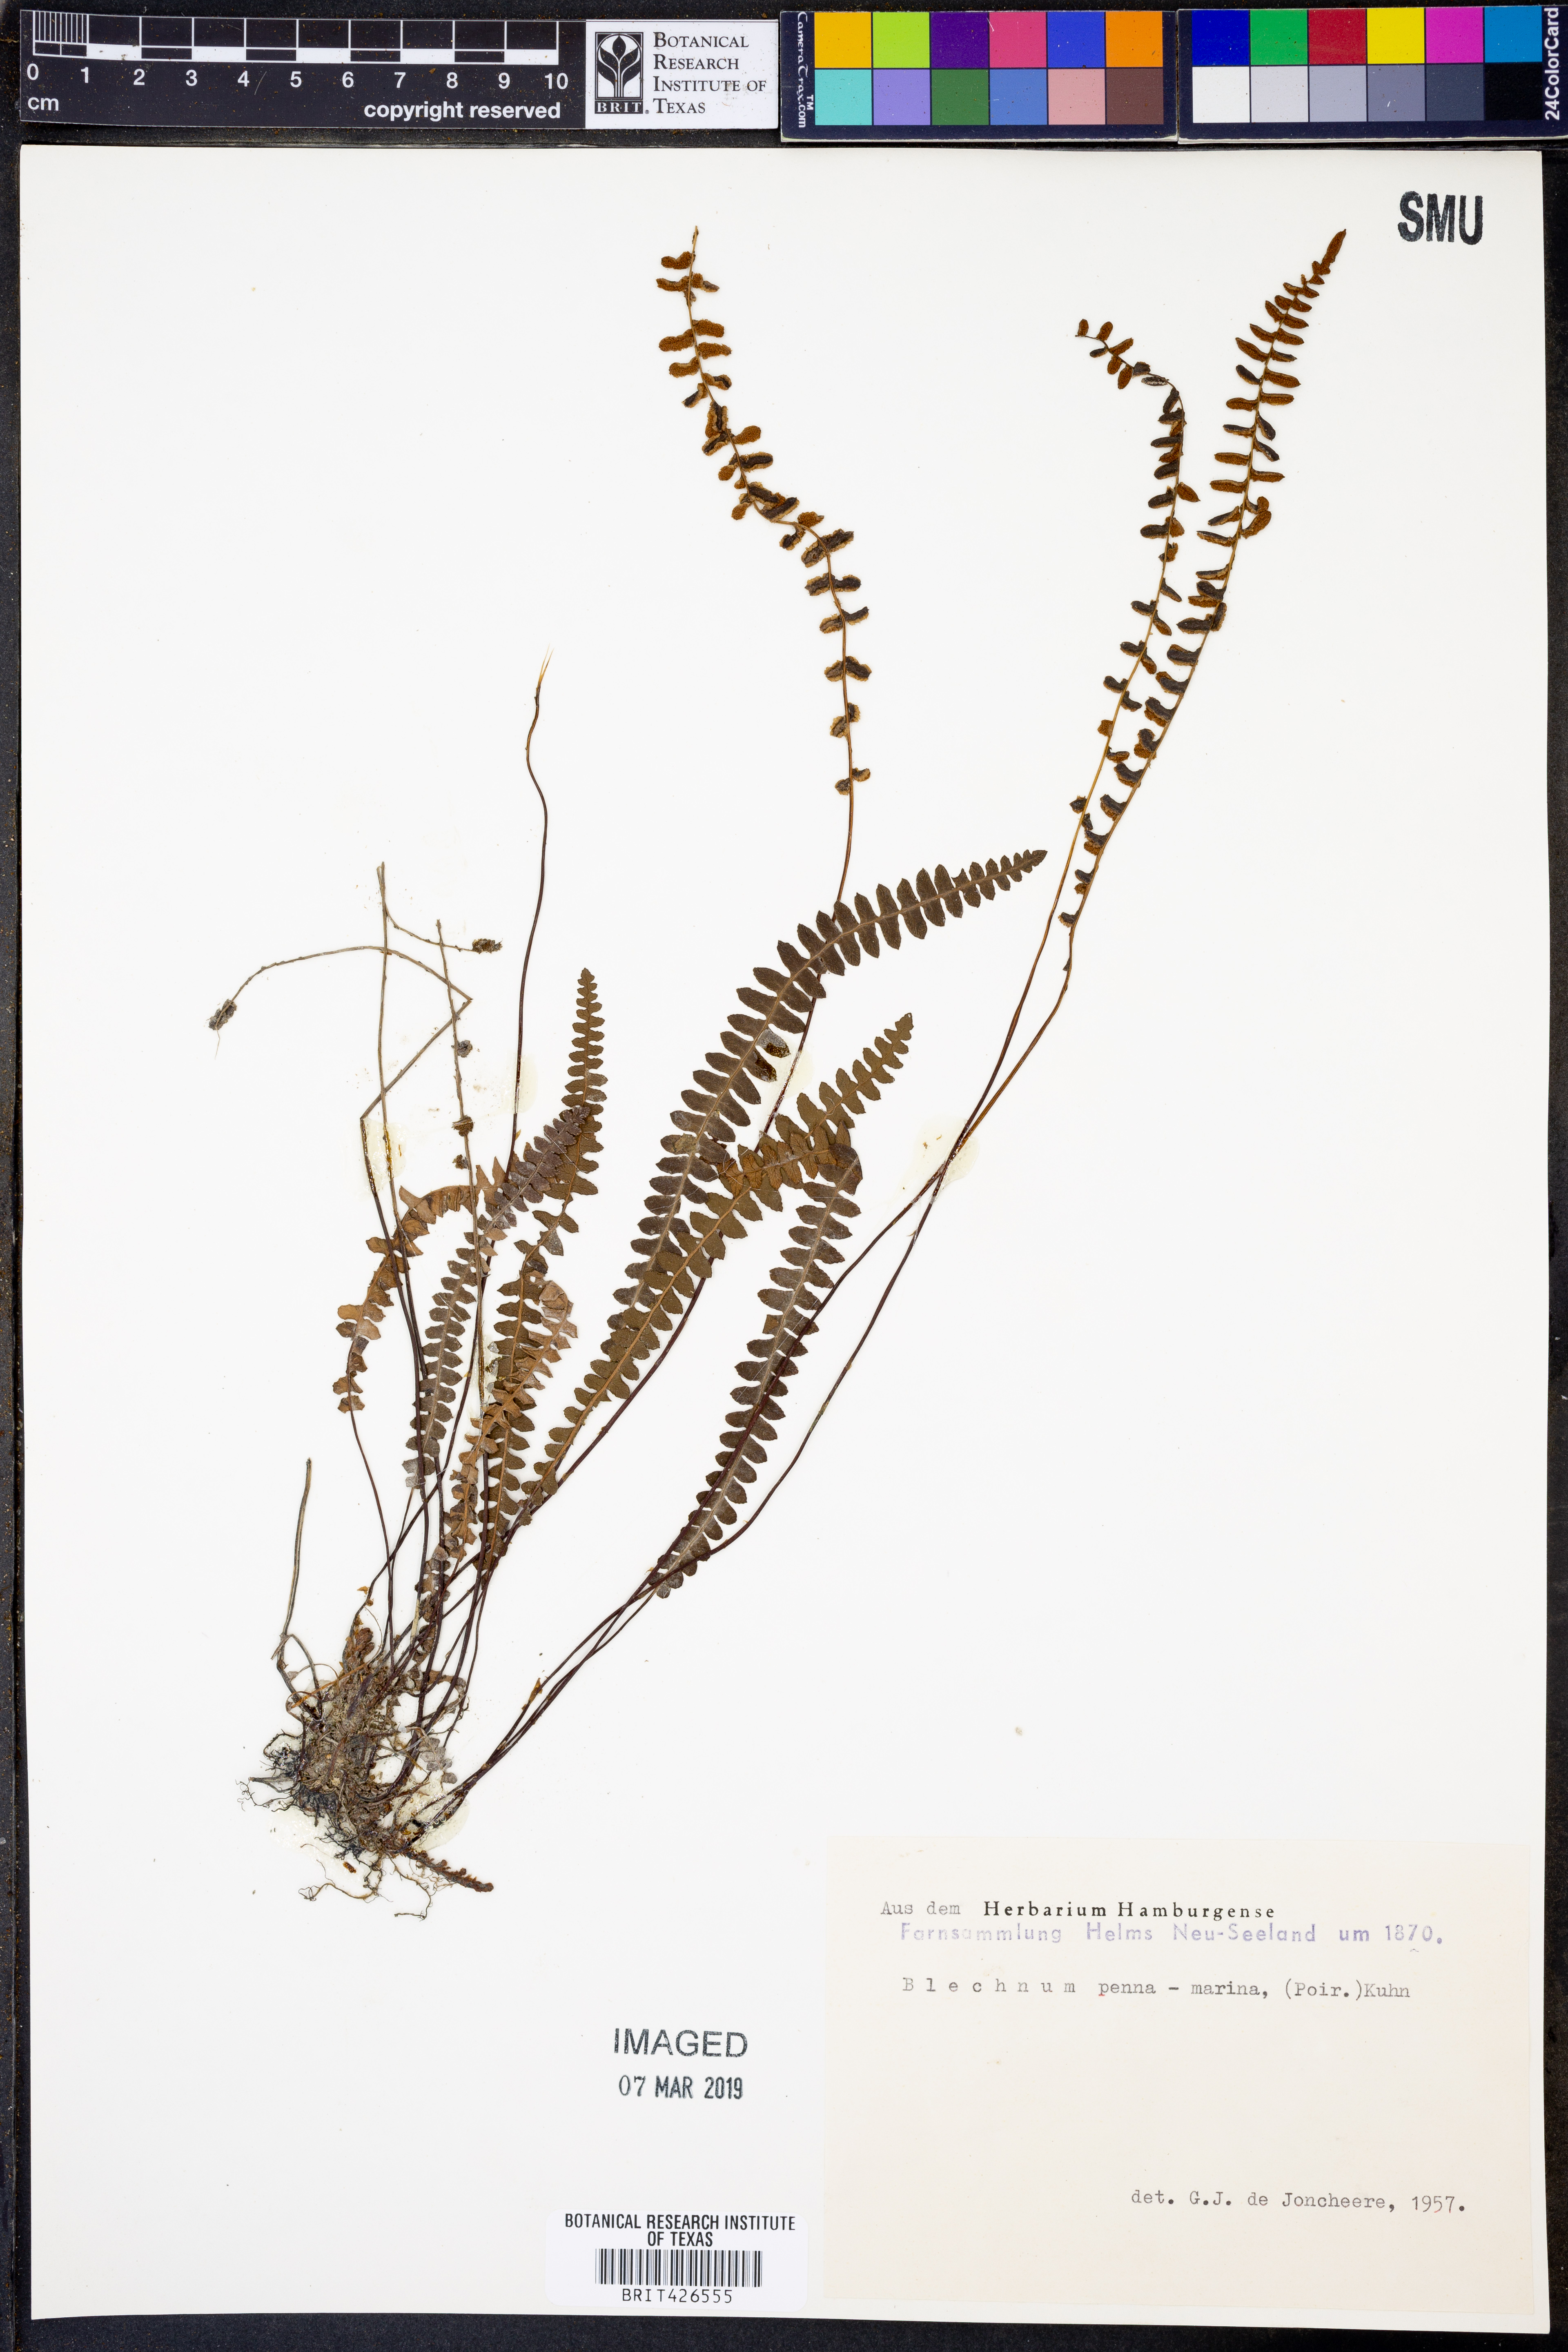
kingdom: Plantae
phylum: Tracheophyta
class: Polypodiopsida
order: Polypodiales
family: Blechnaceae
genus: Austroblechnum
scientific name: Austroblechnum penna-marina
